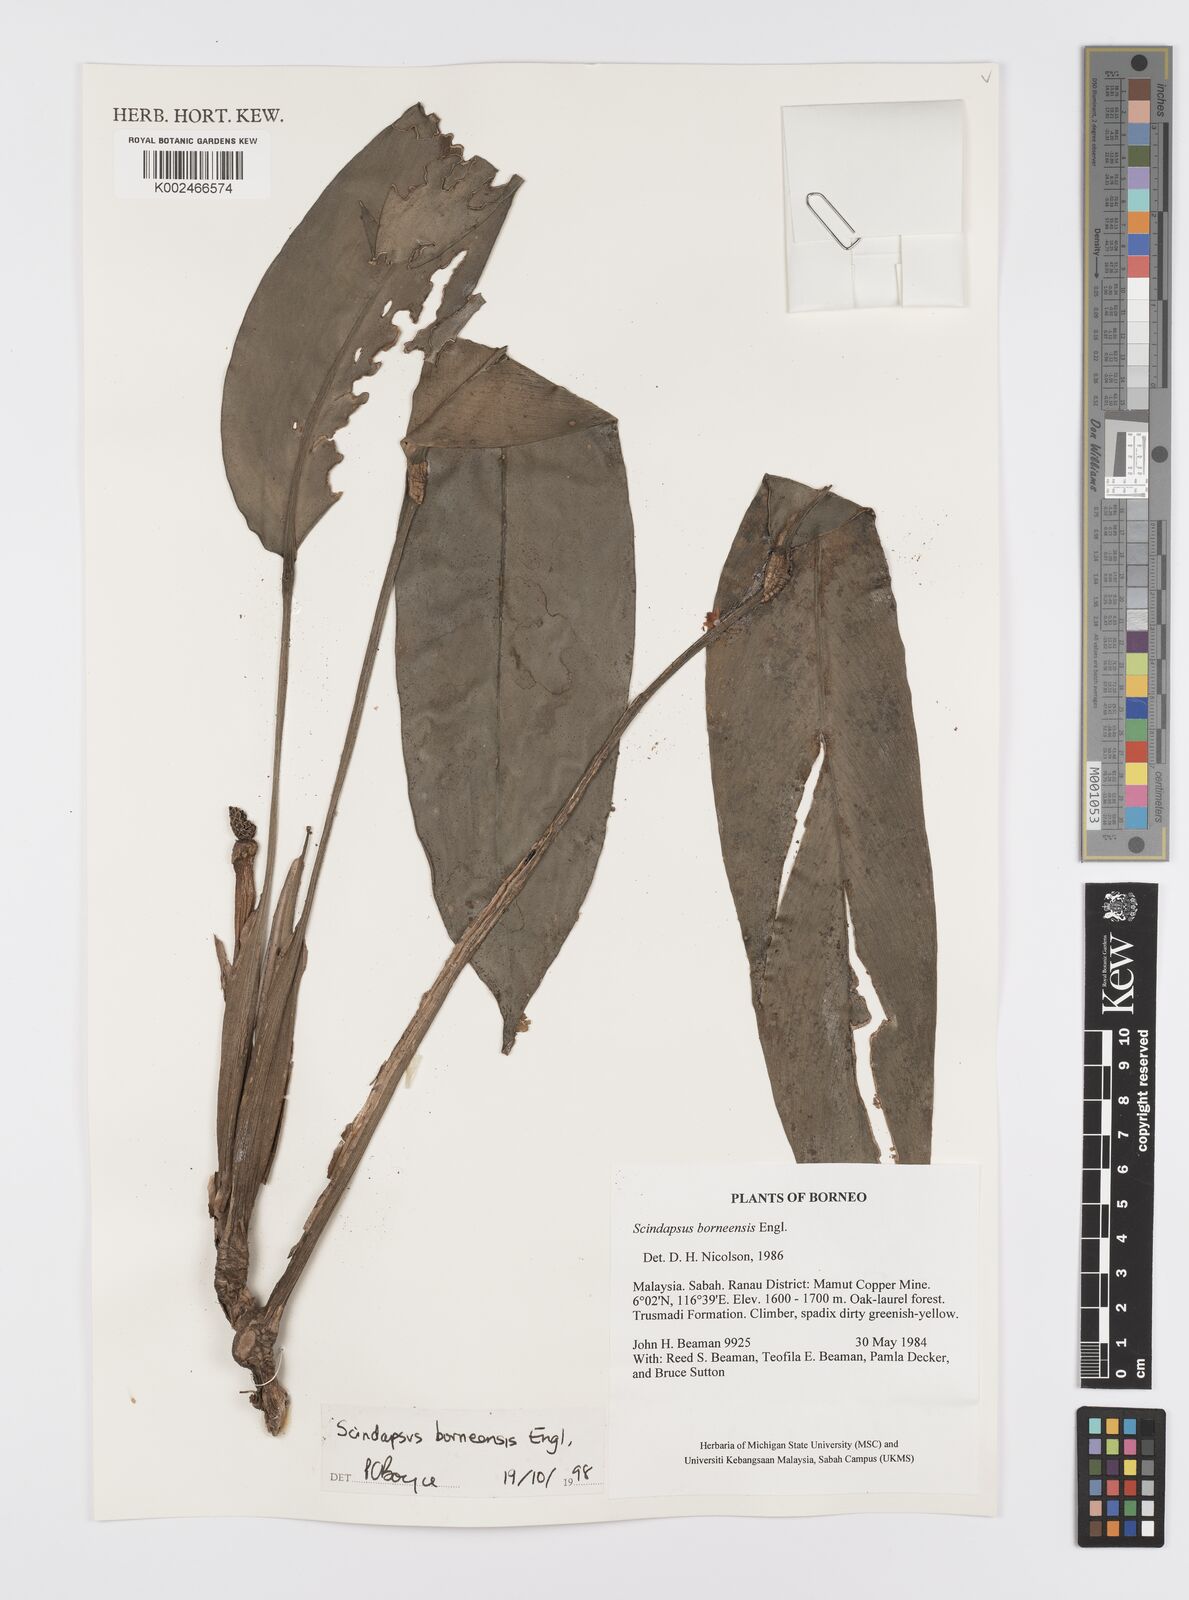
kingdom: Plantae
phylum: Tracheophyta
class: Liliopsida
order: Alismatales
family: Araceae
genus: Scindapsus
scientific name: Scindapsus coriaceus
